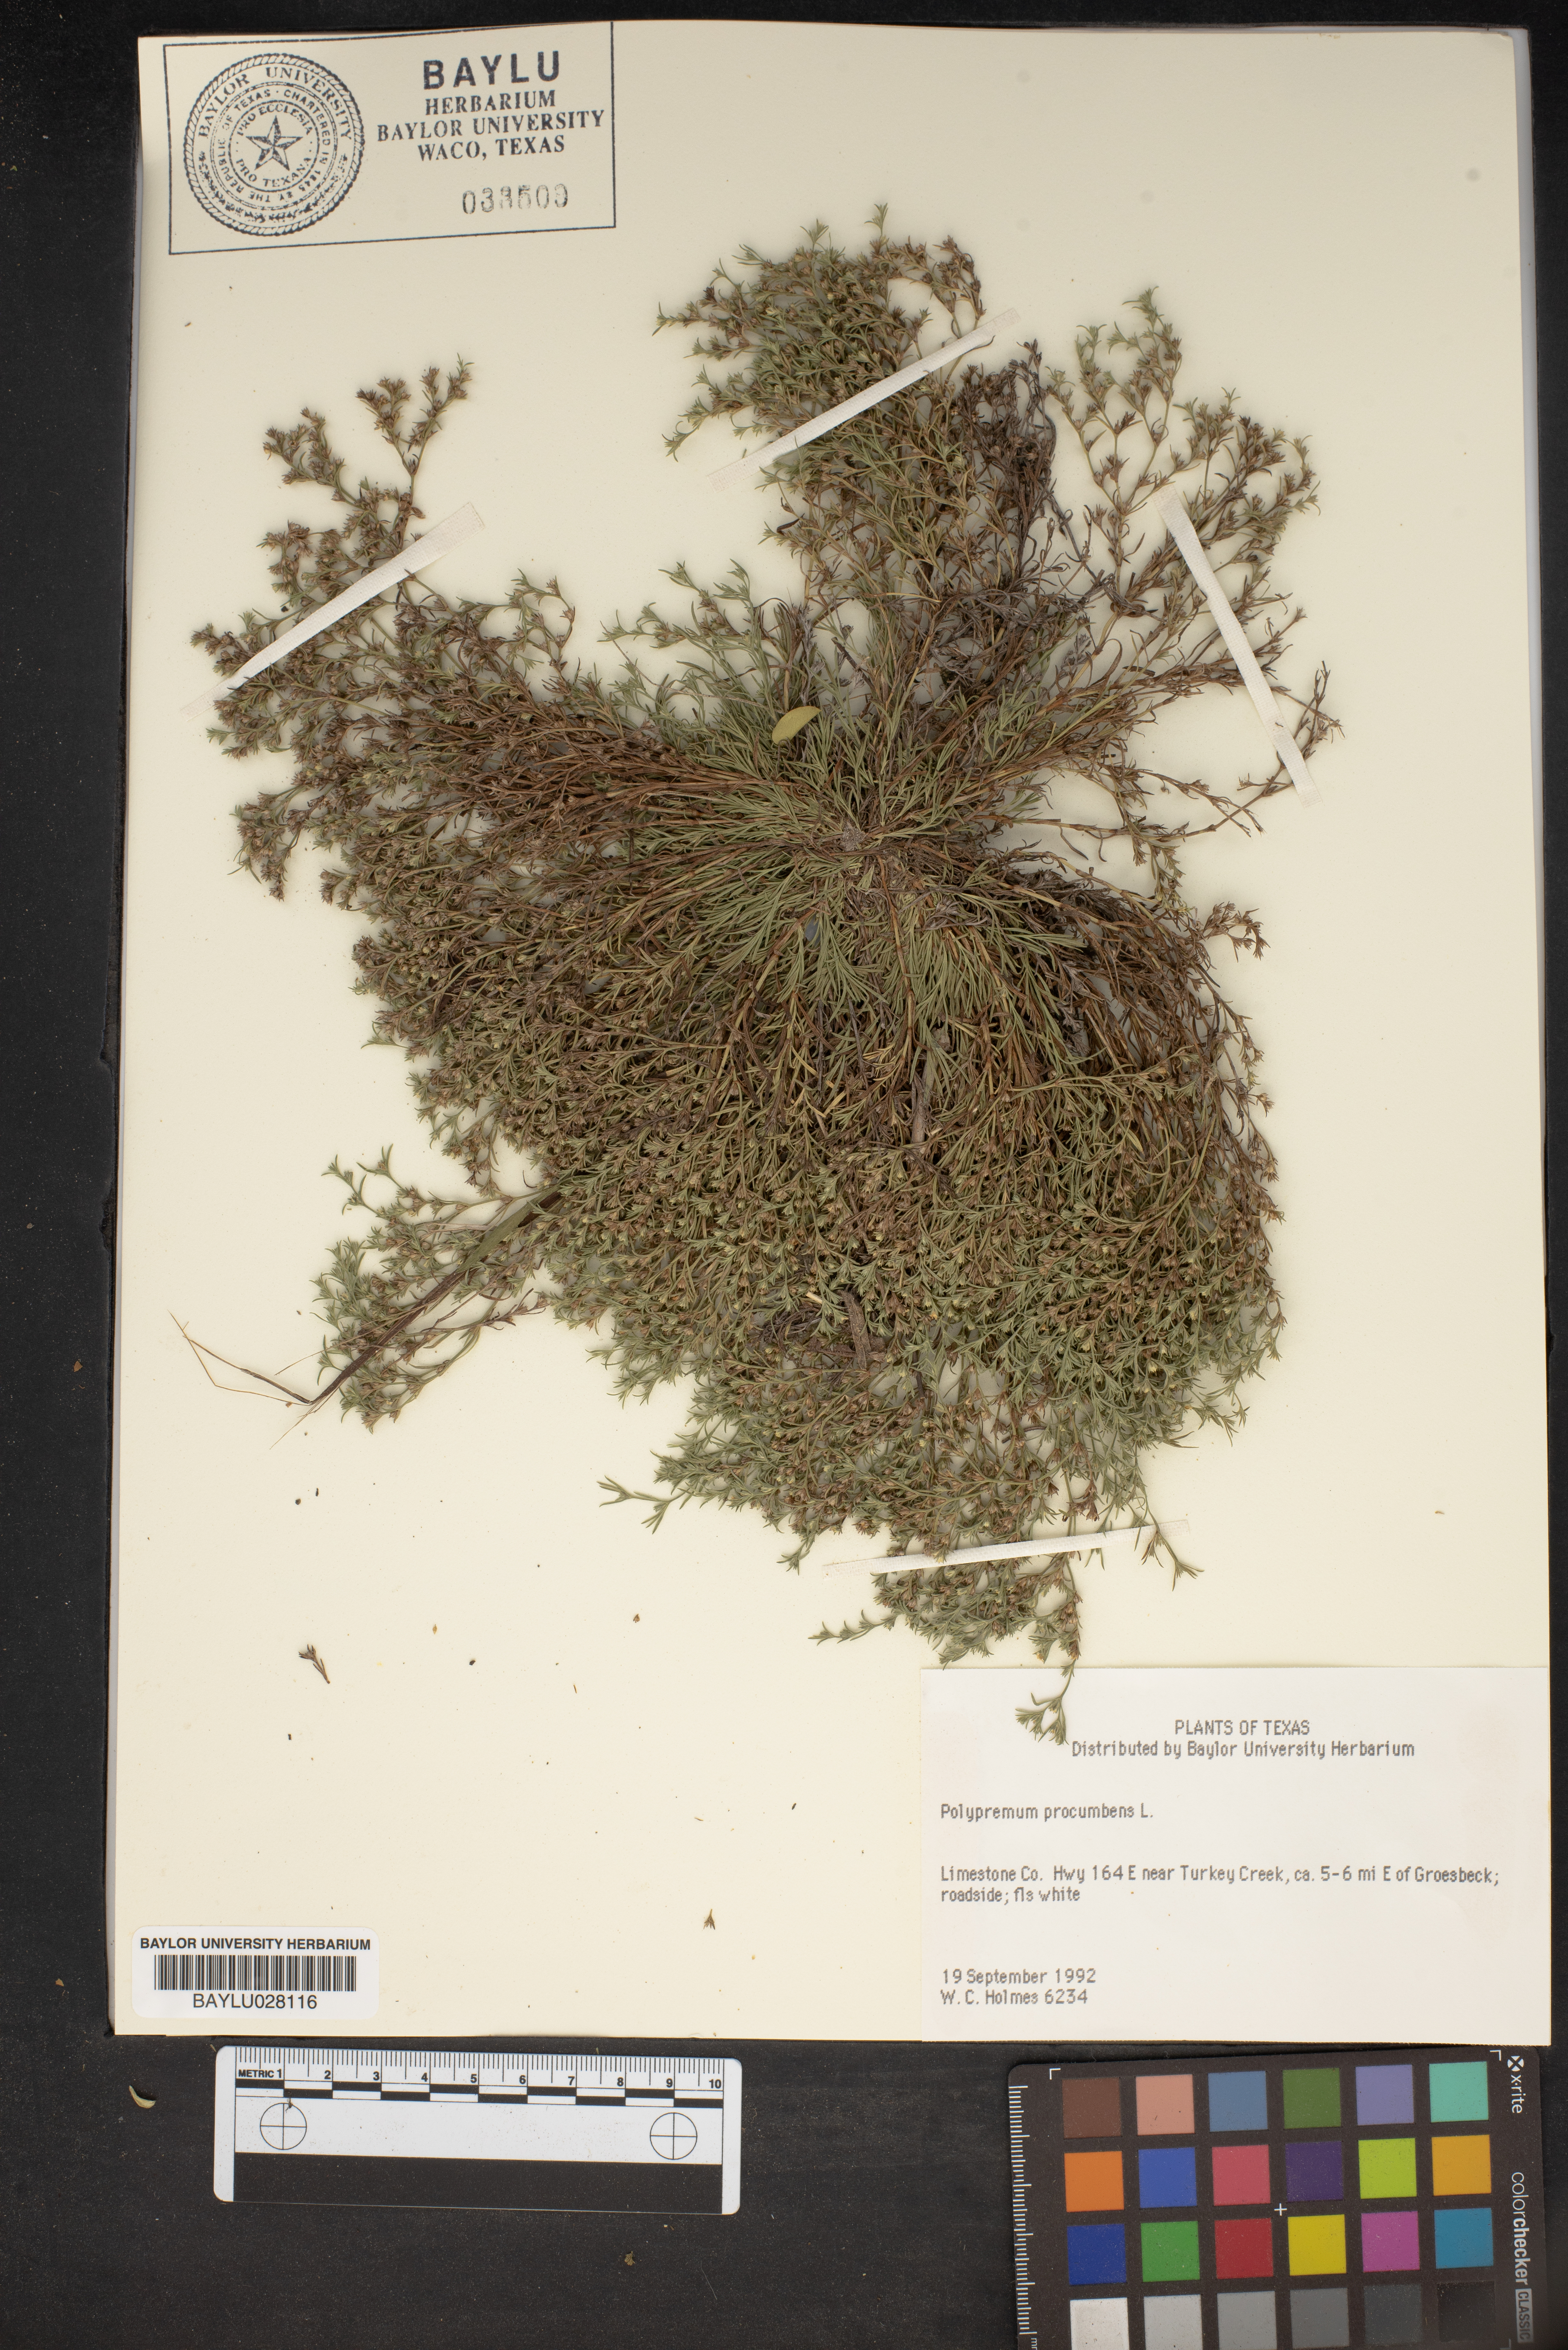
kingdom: Plantae
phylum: Tracheophyta
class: Magnoliopsida
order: Lamiales
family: Tetrachondraceae
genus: Polypremum
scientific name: Polypremum procumbens
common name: Juniper-leaf
